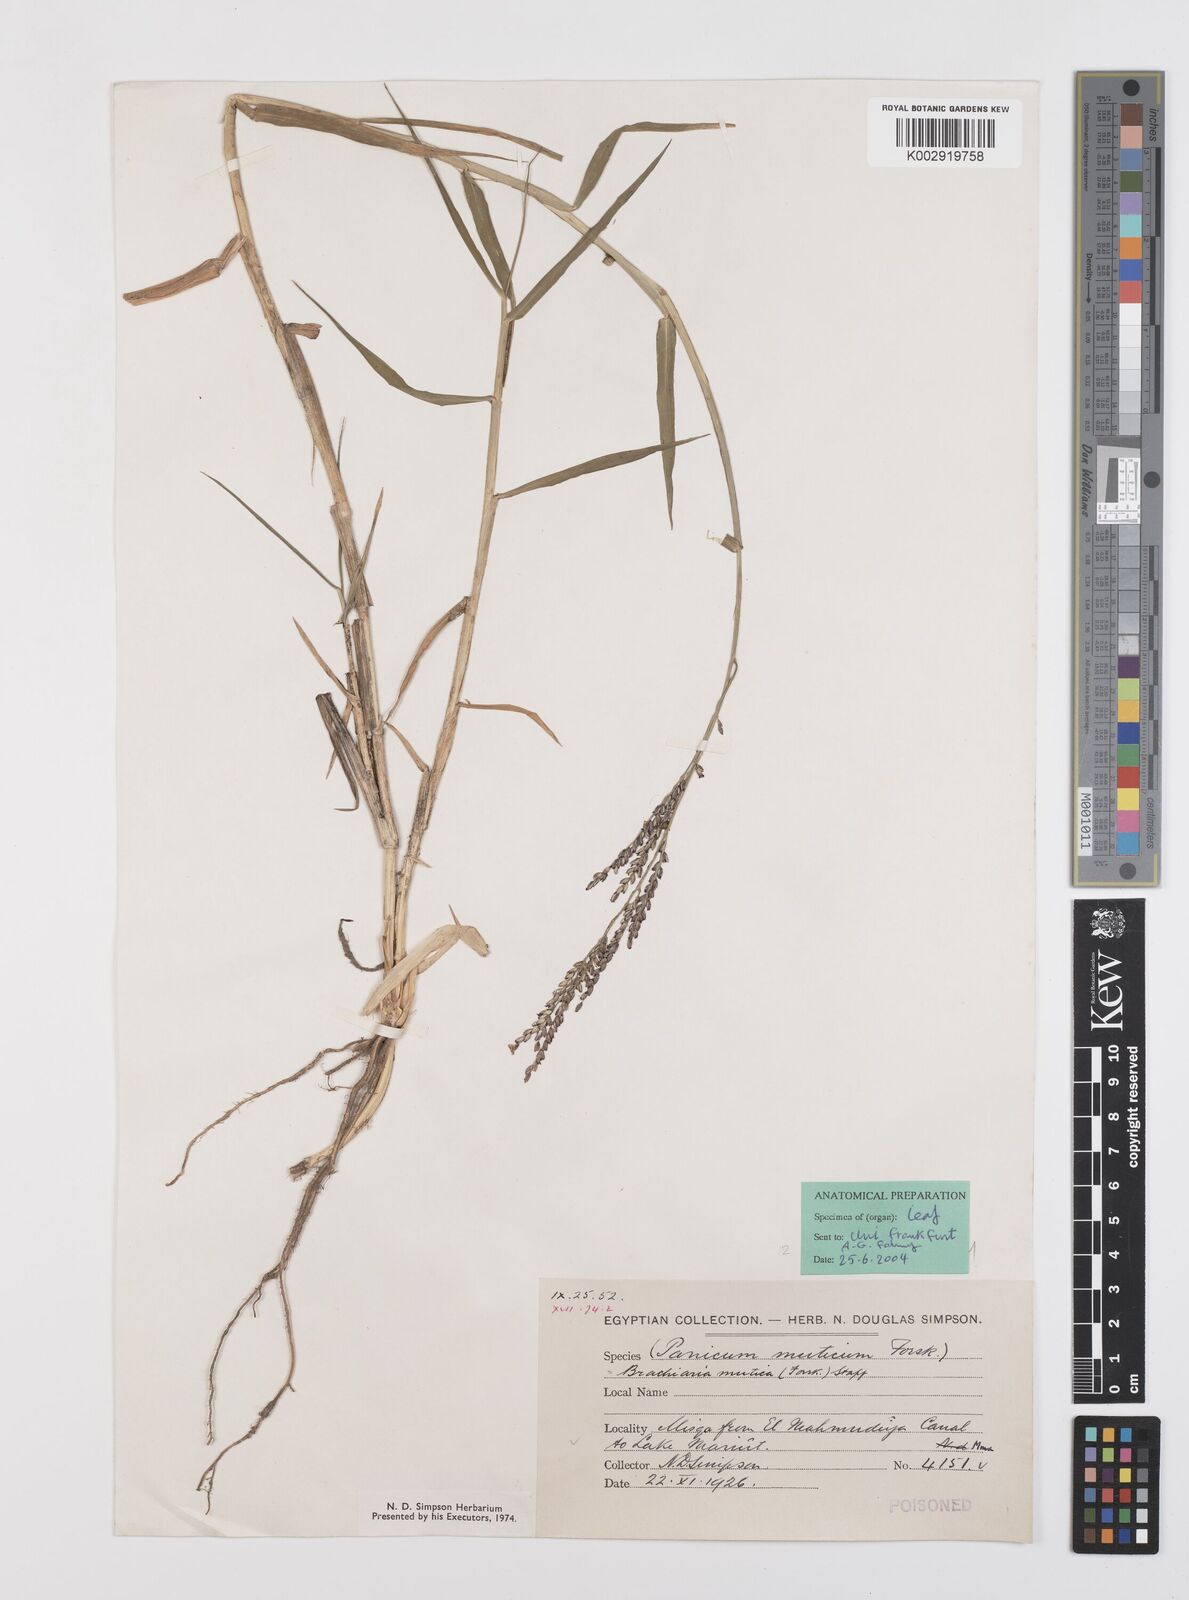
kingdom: Plantae
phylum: Tracheophyta
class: Liliopsida
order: Poales
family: Poaceae
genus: Urochloa
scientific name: Urochloa mutica
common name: Para grass
